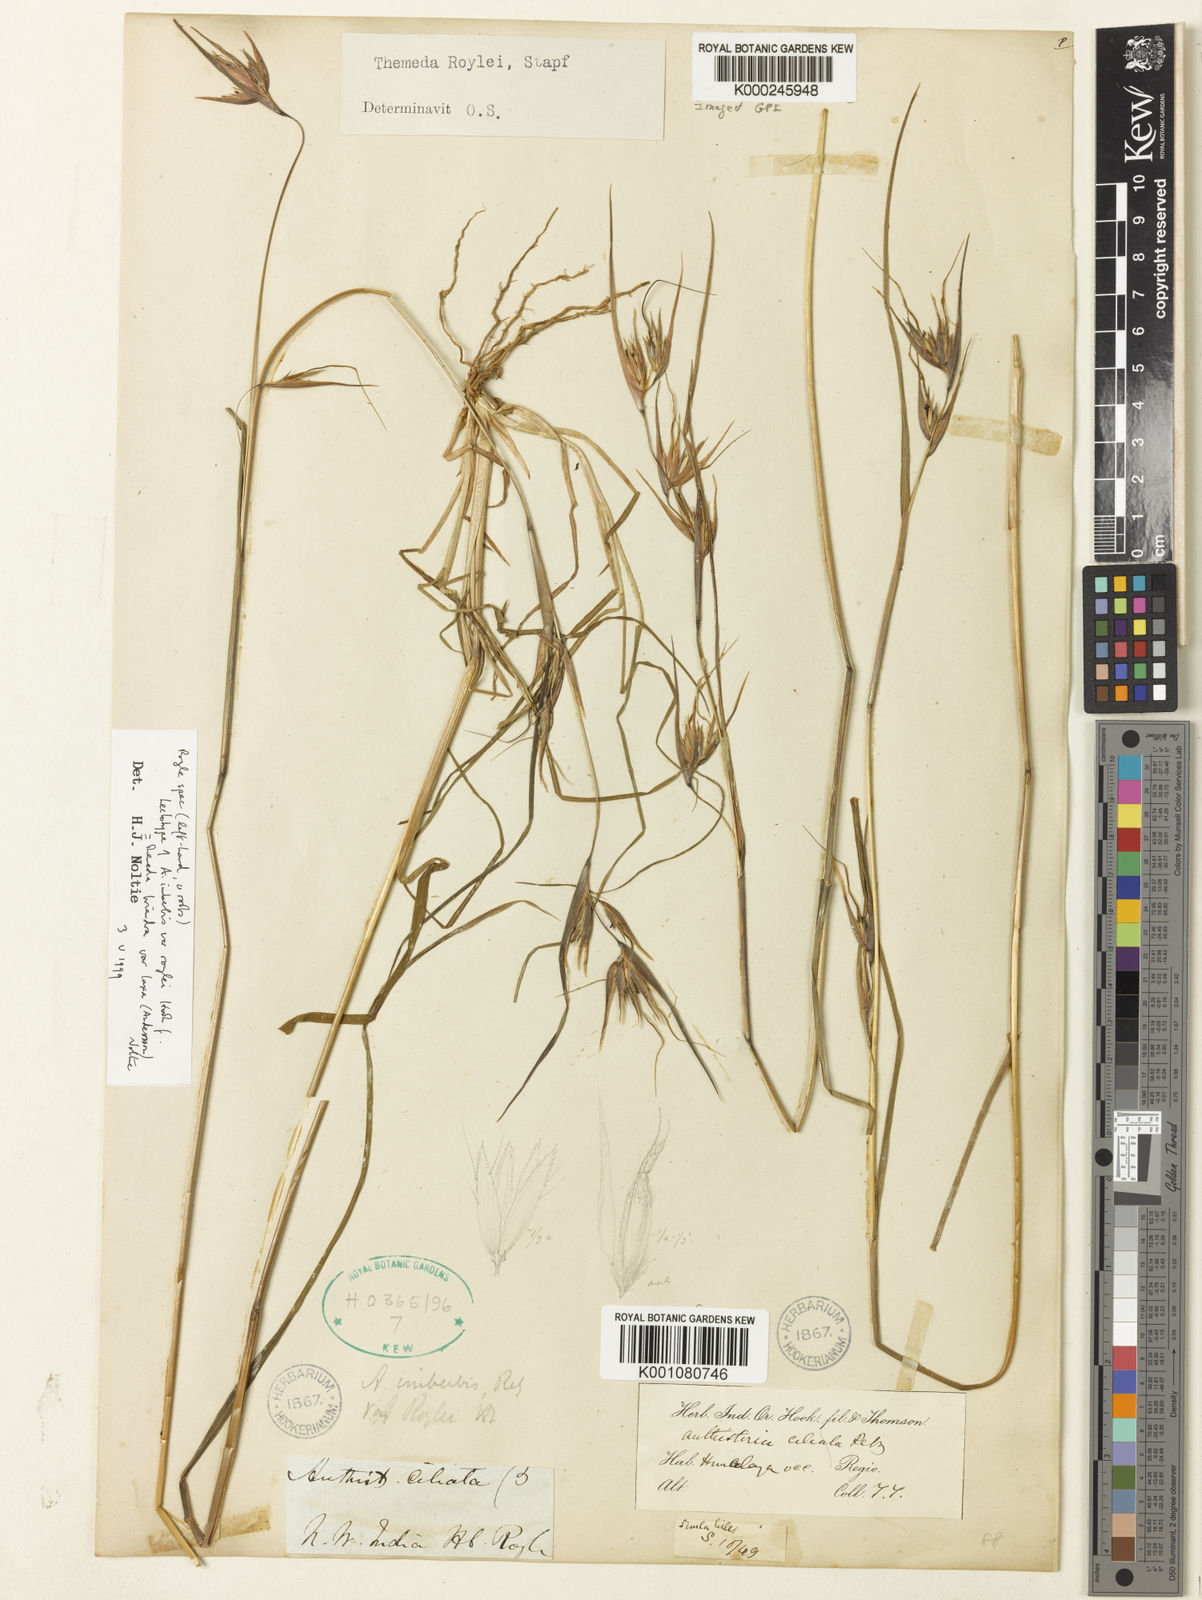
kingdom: Plantae
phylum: Tracheophyta
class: Liliopsida
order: Poales
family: Poaceae
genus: Themeda
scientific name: Themeda triandra
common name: Kangaroo grass
